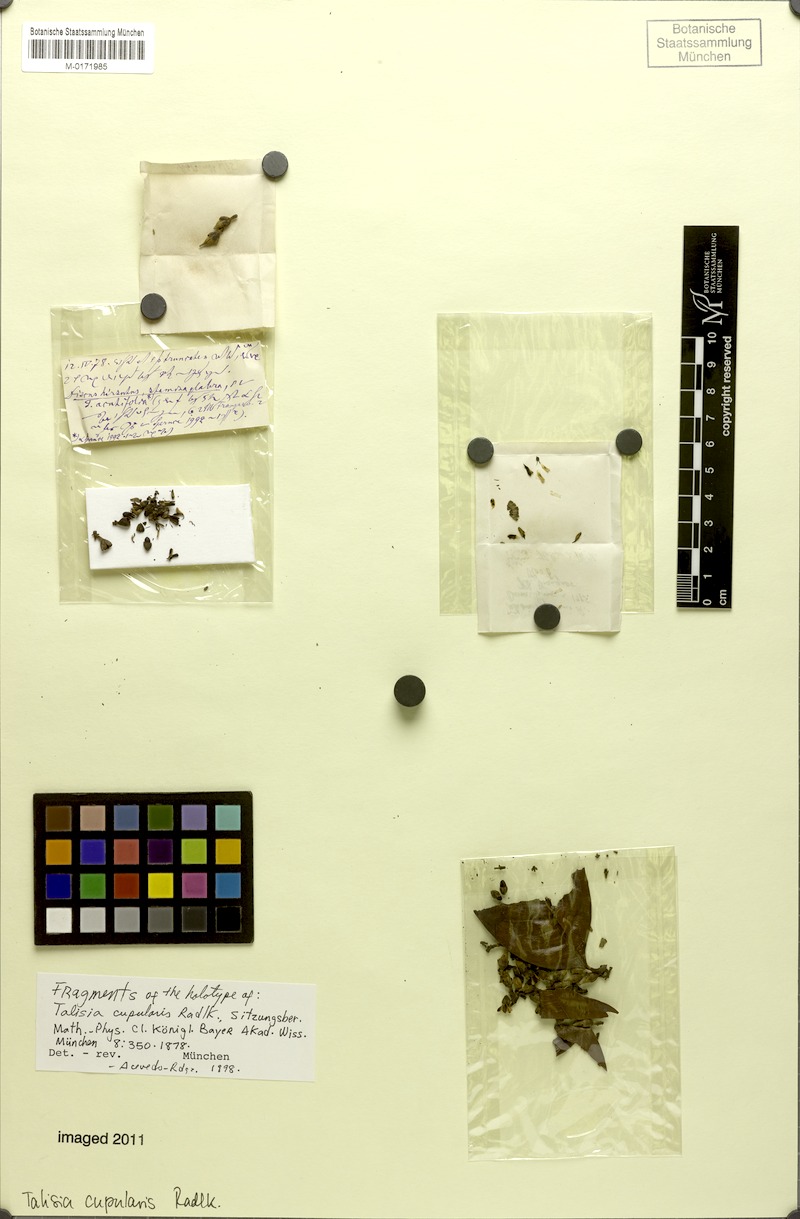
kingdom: Plantae
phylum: Tracheophyta
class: Magnoliopsida
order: Sapindales
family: Sapindaceae
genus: Talisia
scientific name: Talisia cupularis
